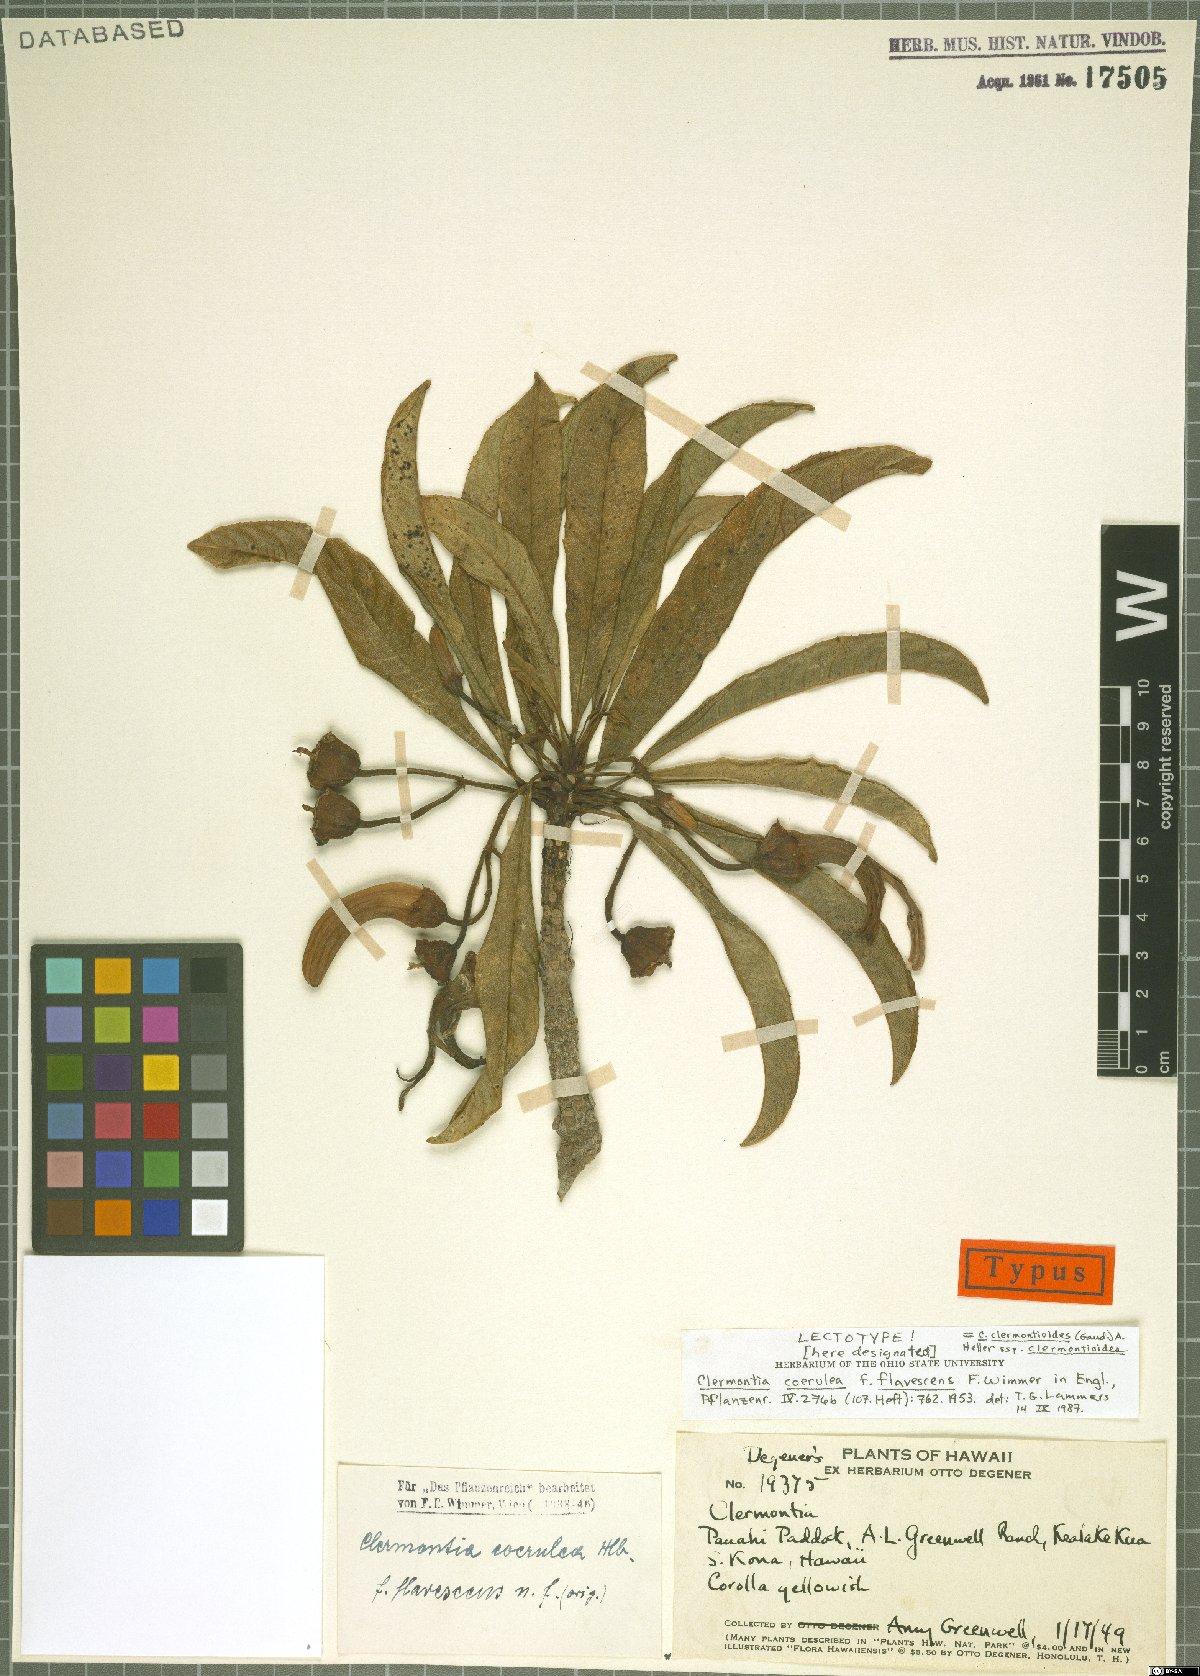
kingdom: Plantae
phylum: Tracheophyta
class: Magnoliopsida
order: Asterales
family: Campanulaceae
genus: Clermontia
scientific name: Clermontia clermontioides
